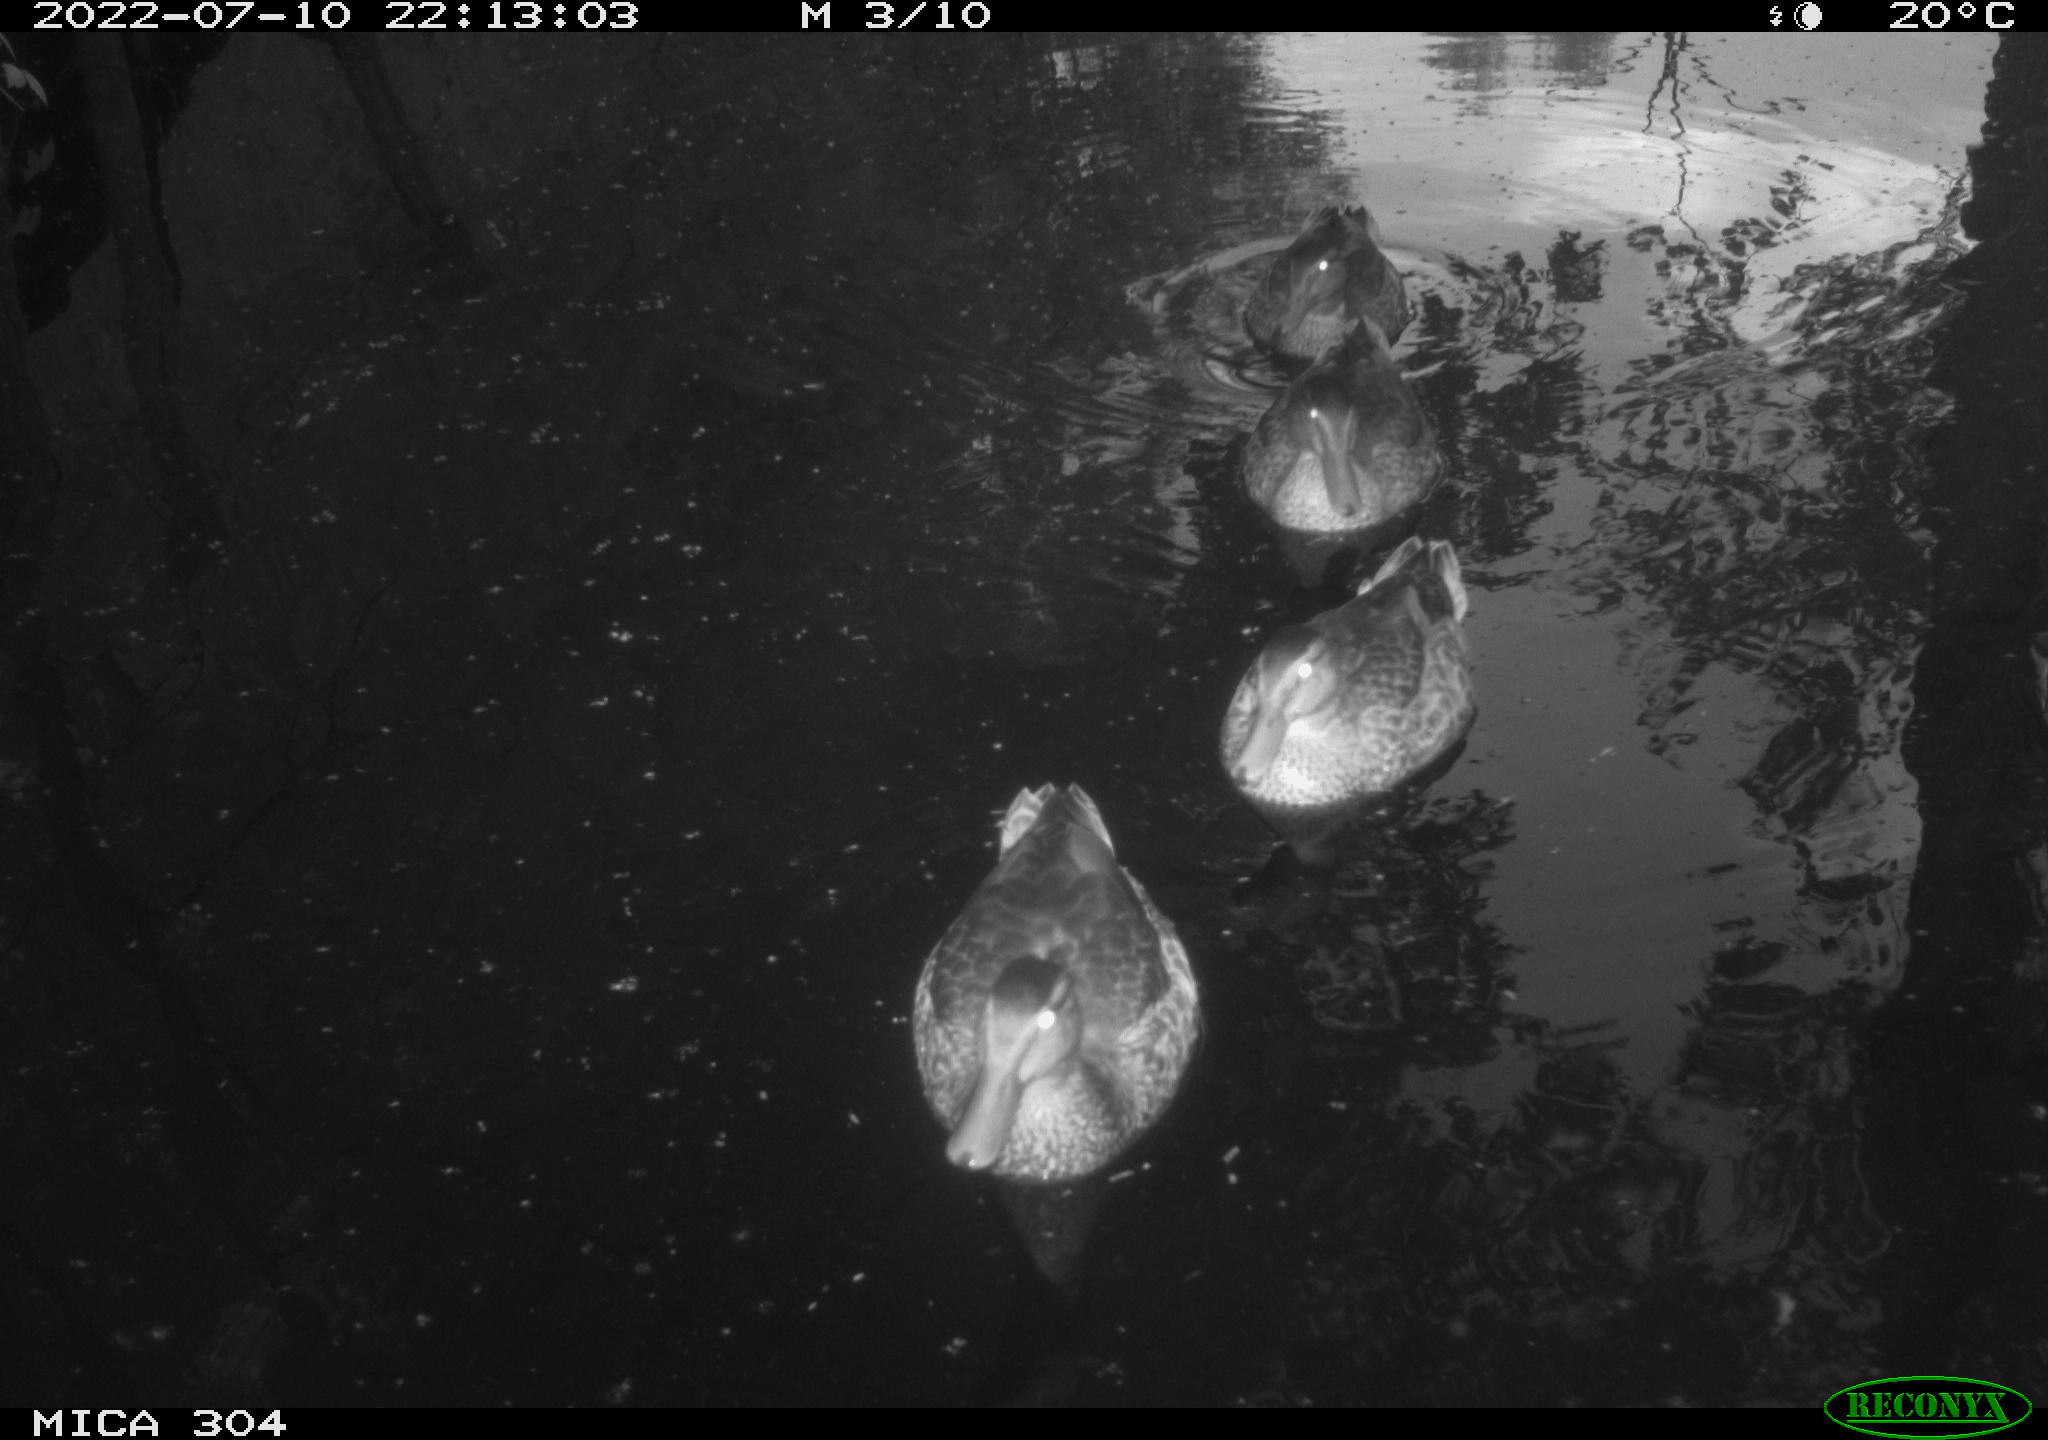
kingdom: Animalia
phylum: Chordata
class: Aves
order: Anseriformes
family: Anatidae
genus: Anas
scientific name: Anas platyrhynchos
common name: Mallard
